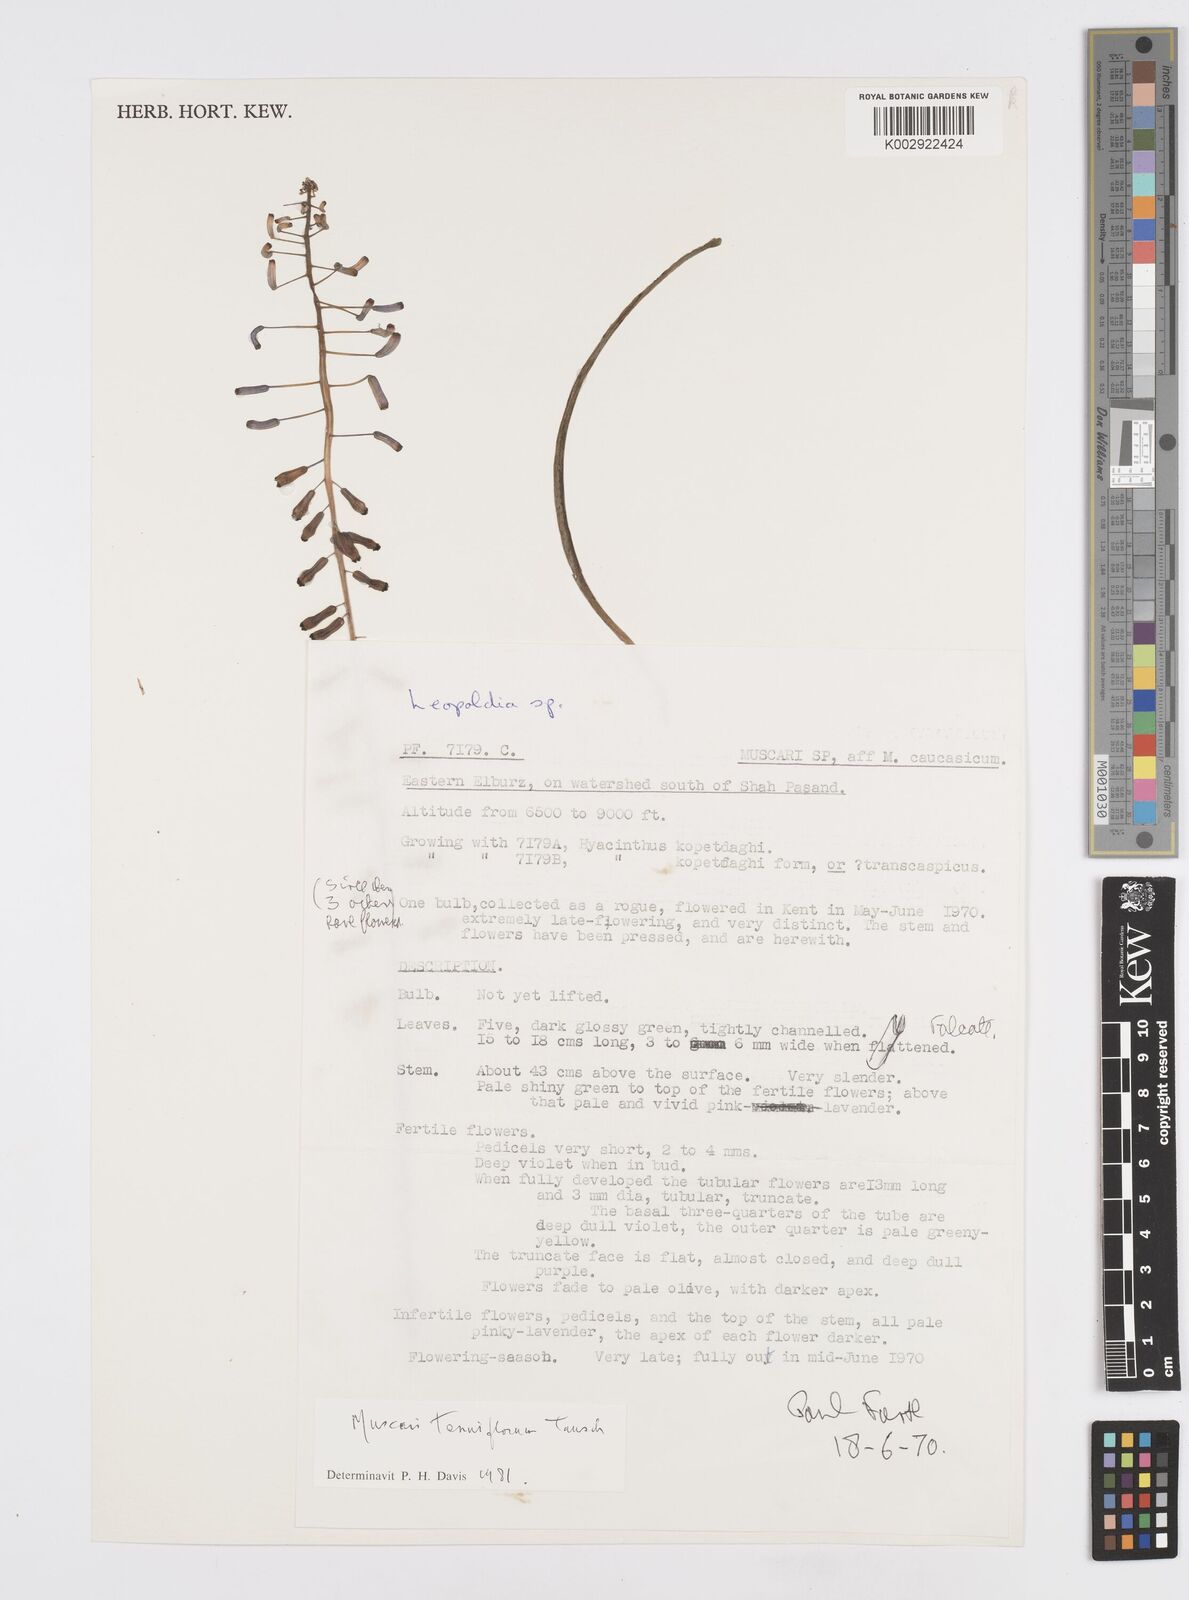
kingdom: Plantae
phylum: Tracheophyta
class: Liliopsida
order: Asparagales
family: Asparagaceae
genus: Muscari
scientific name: Muscari tenuiflorum
